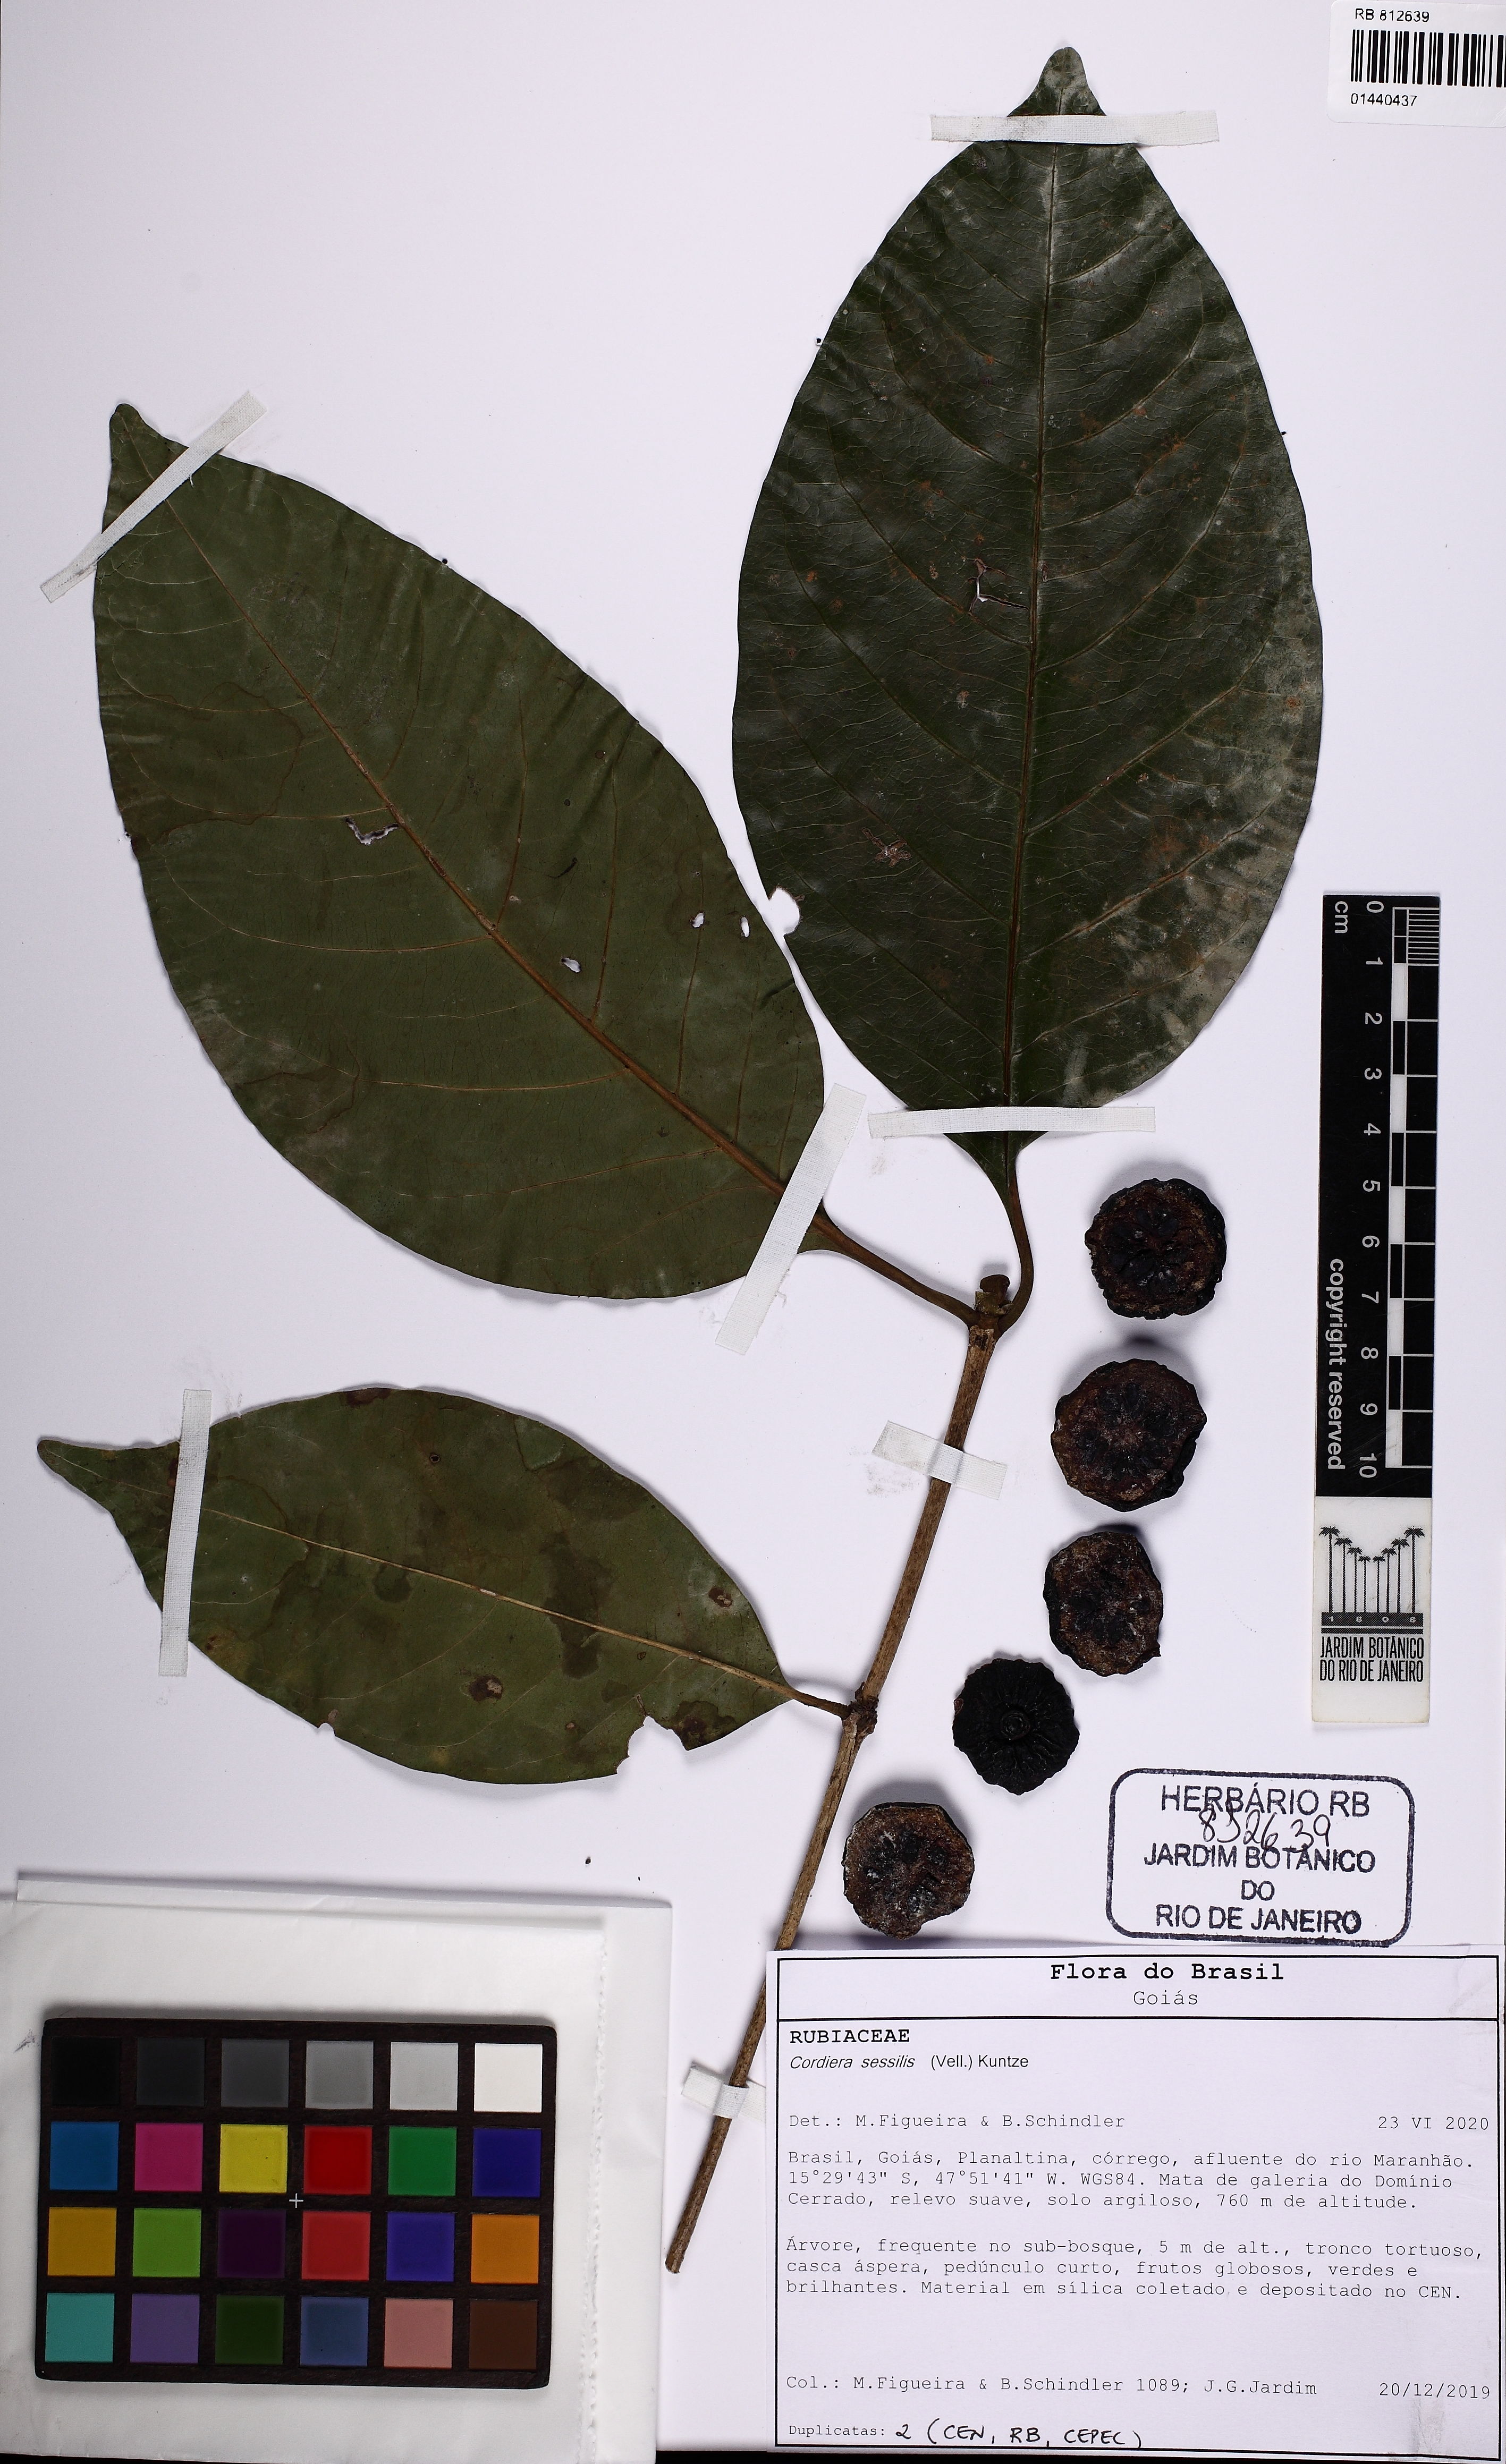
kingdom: Plantae
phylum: Tracheophyta
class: Magnoliopsida
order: Gentianales
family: Rubiaceae
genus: Cordiera
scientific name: Cordiera sessilis
